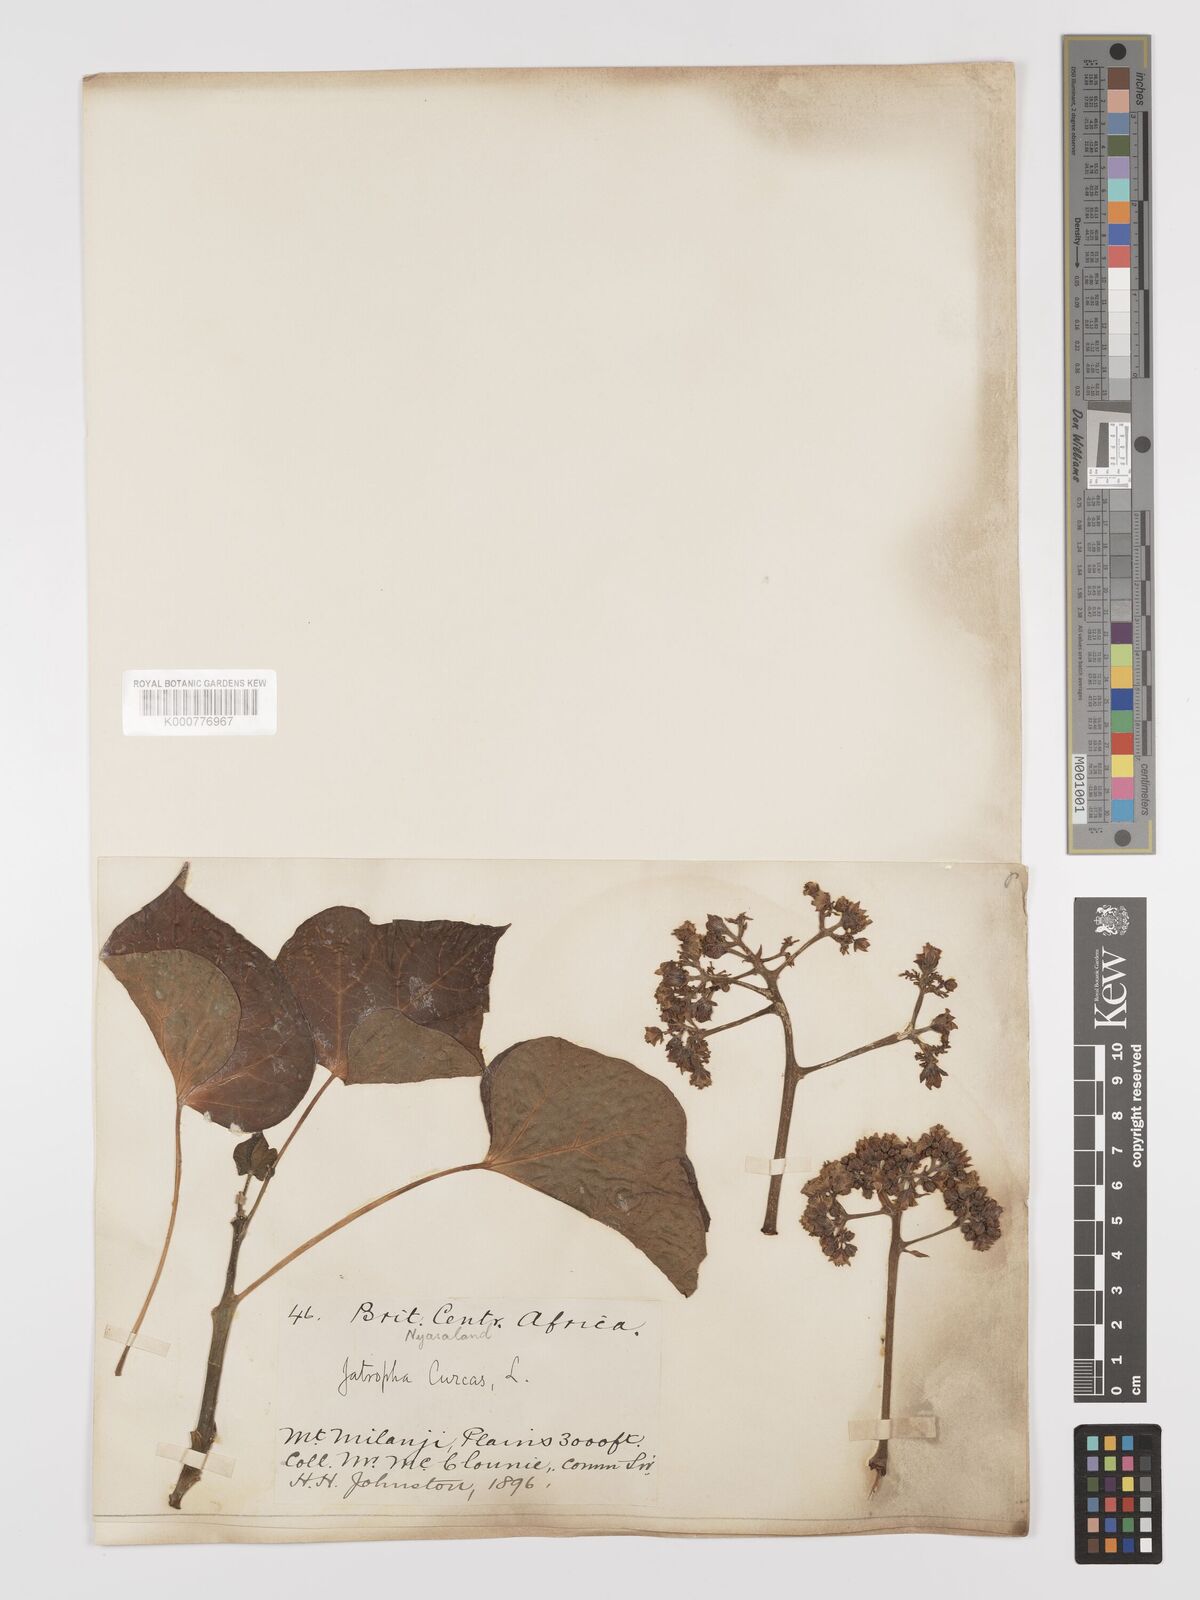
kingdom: Plantae
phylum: Tracheophyta
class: Magnoliopsida
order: Malpighiales
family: Euphorbiaceae
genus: Jatropha
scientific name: Jatropha curcas
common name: Barbados nut
